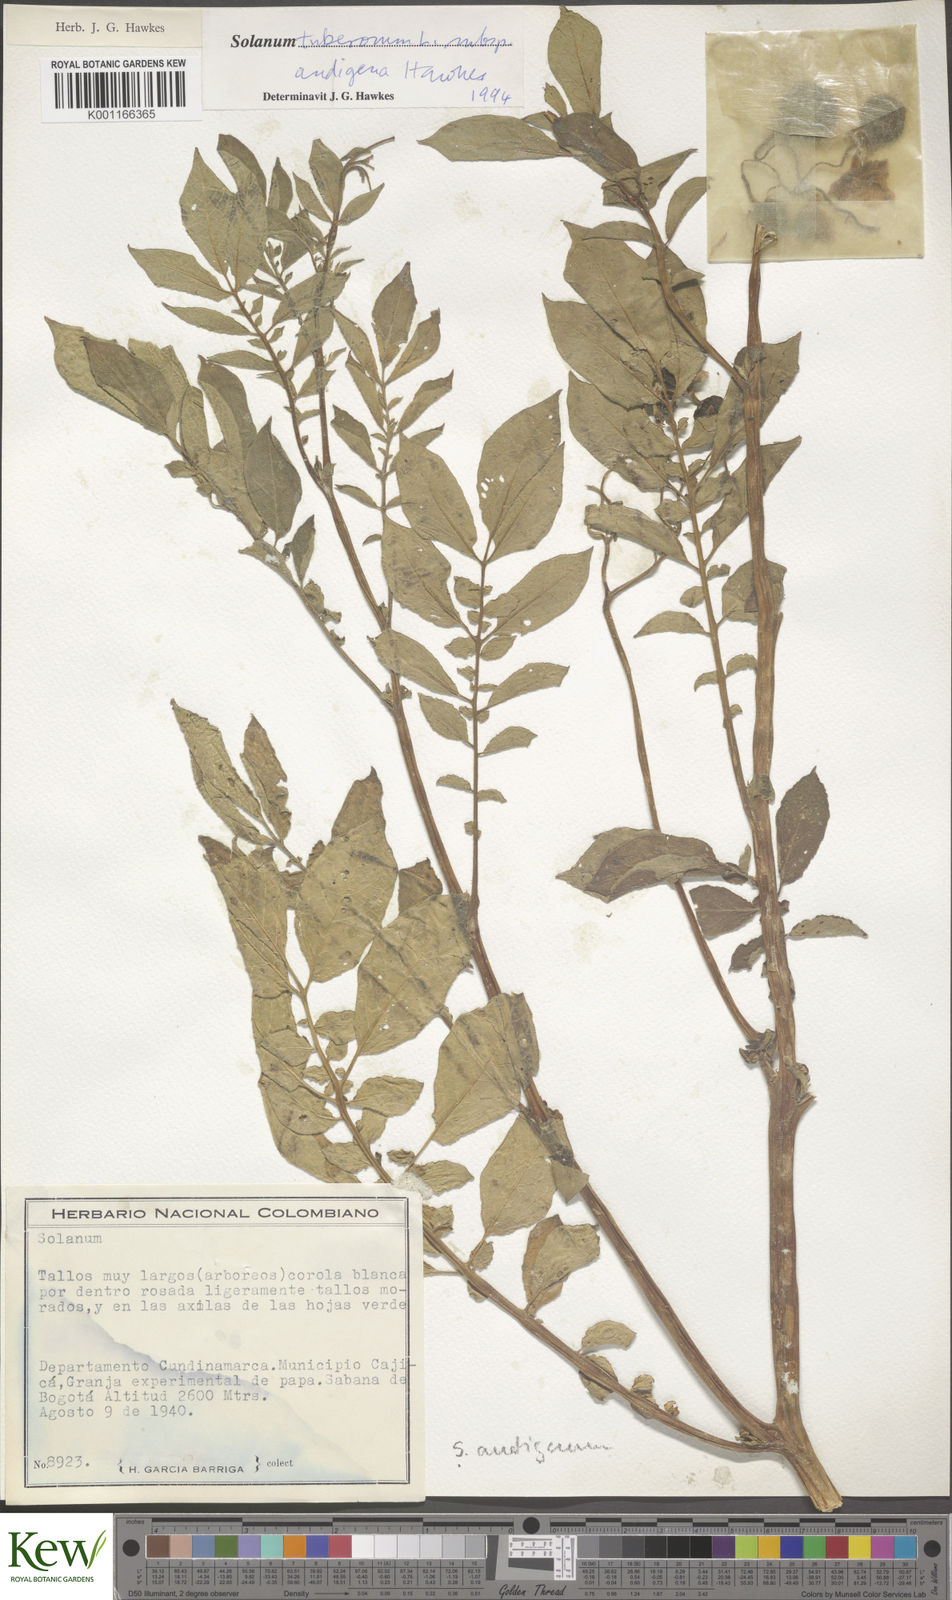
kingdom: Plantae
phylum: Tracheophyta
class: Magnoliopsida
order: Solanales
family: Solanaceae
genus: Solanum
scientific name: Solanum tuberosum
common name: Potato
